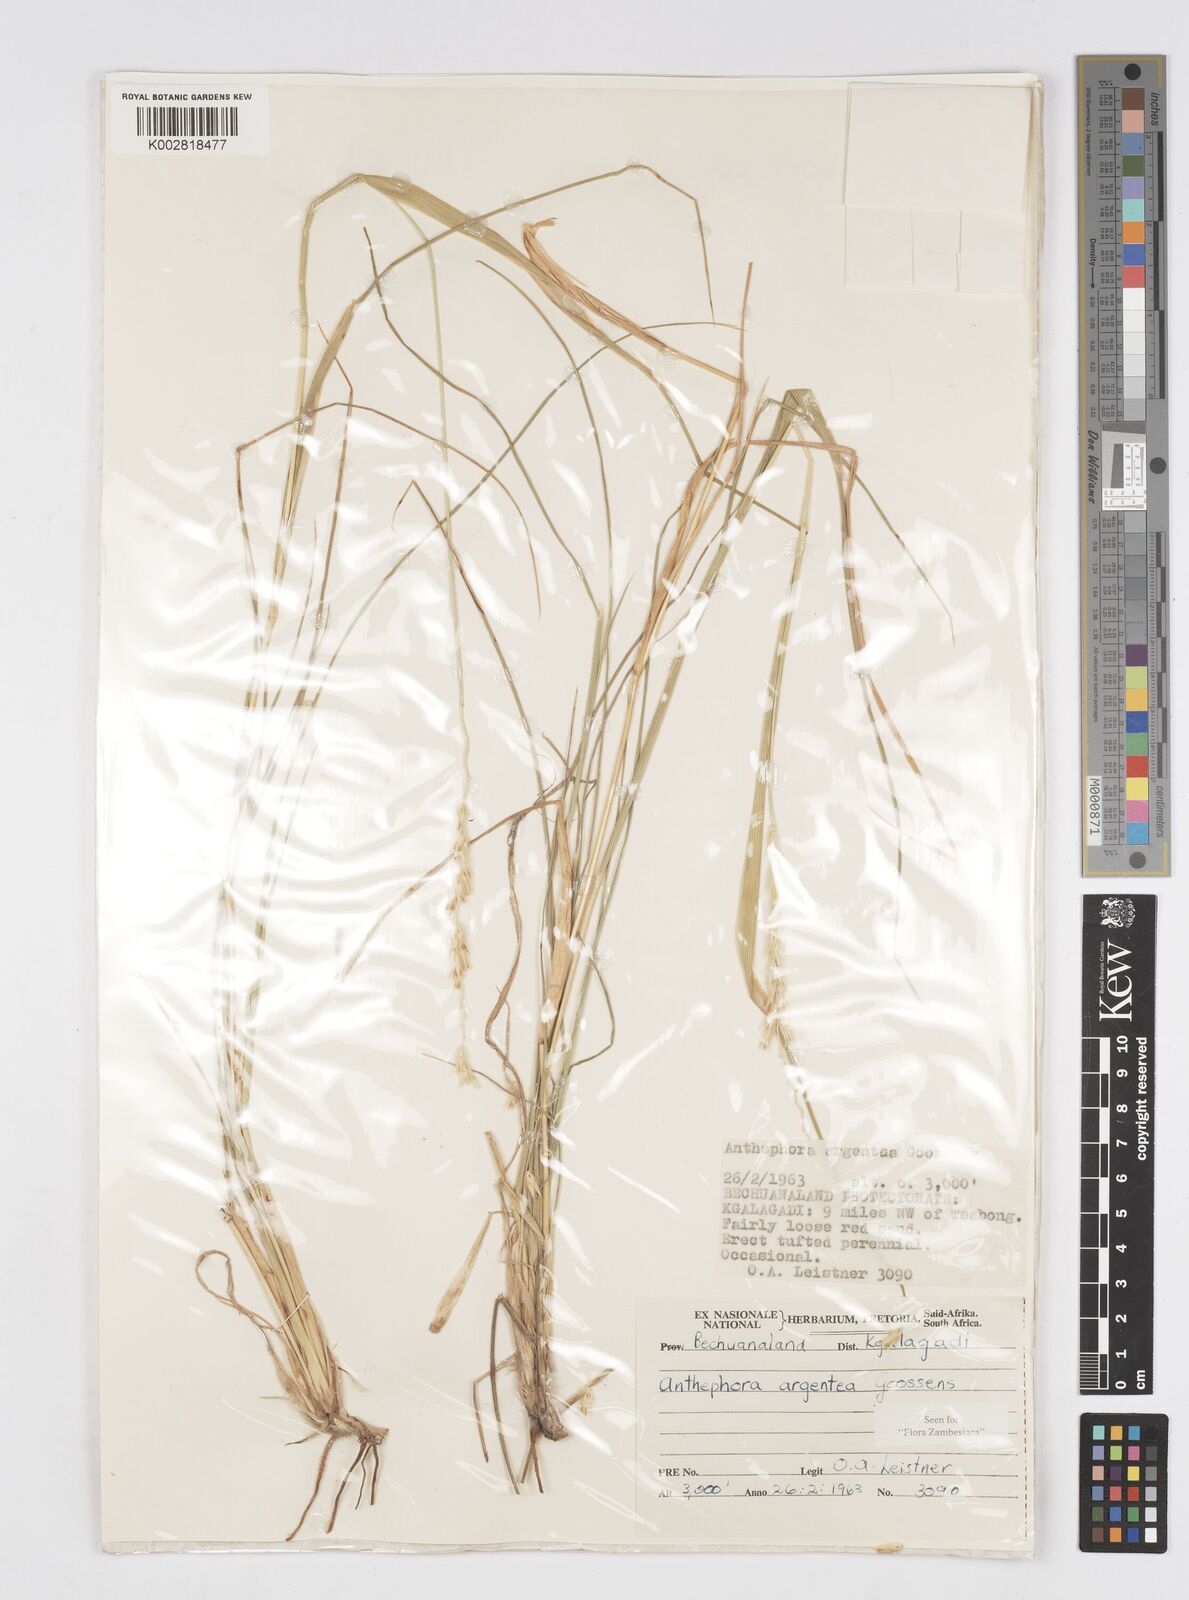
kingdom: Plantae
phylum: Tracheophyta
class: Liliopsida
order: Poales
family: Poaceae
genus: Anthephora
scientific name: Anthephora argentea
